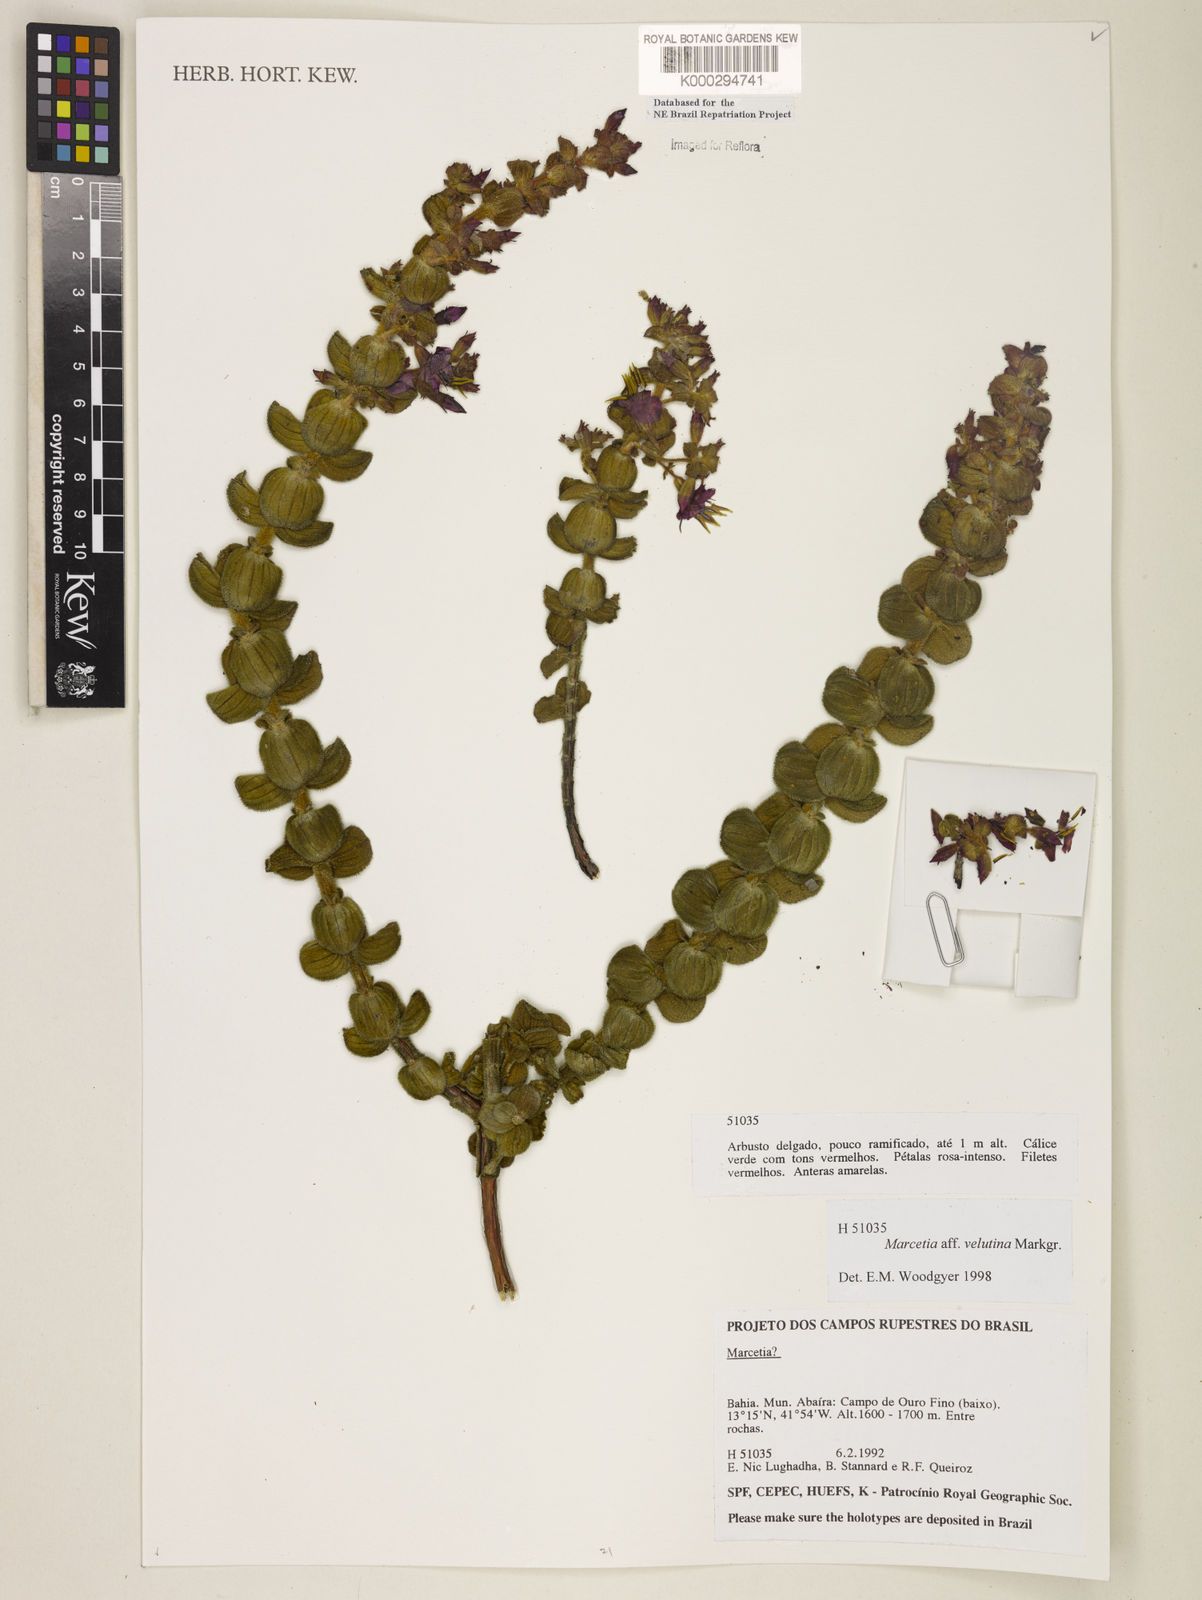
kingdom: Plantae
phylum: Tracheophyta
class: Magnoliopsida
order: Fabales
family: Fabaceae
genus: Mucuna
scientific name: Mucuna urens
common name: Red hamburger bean
